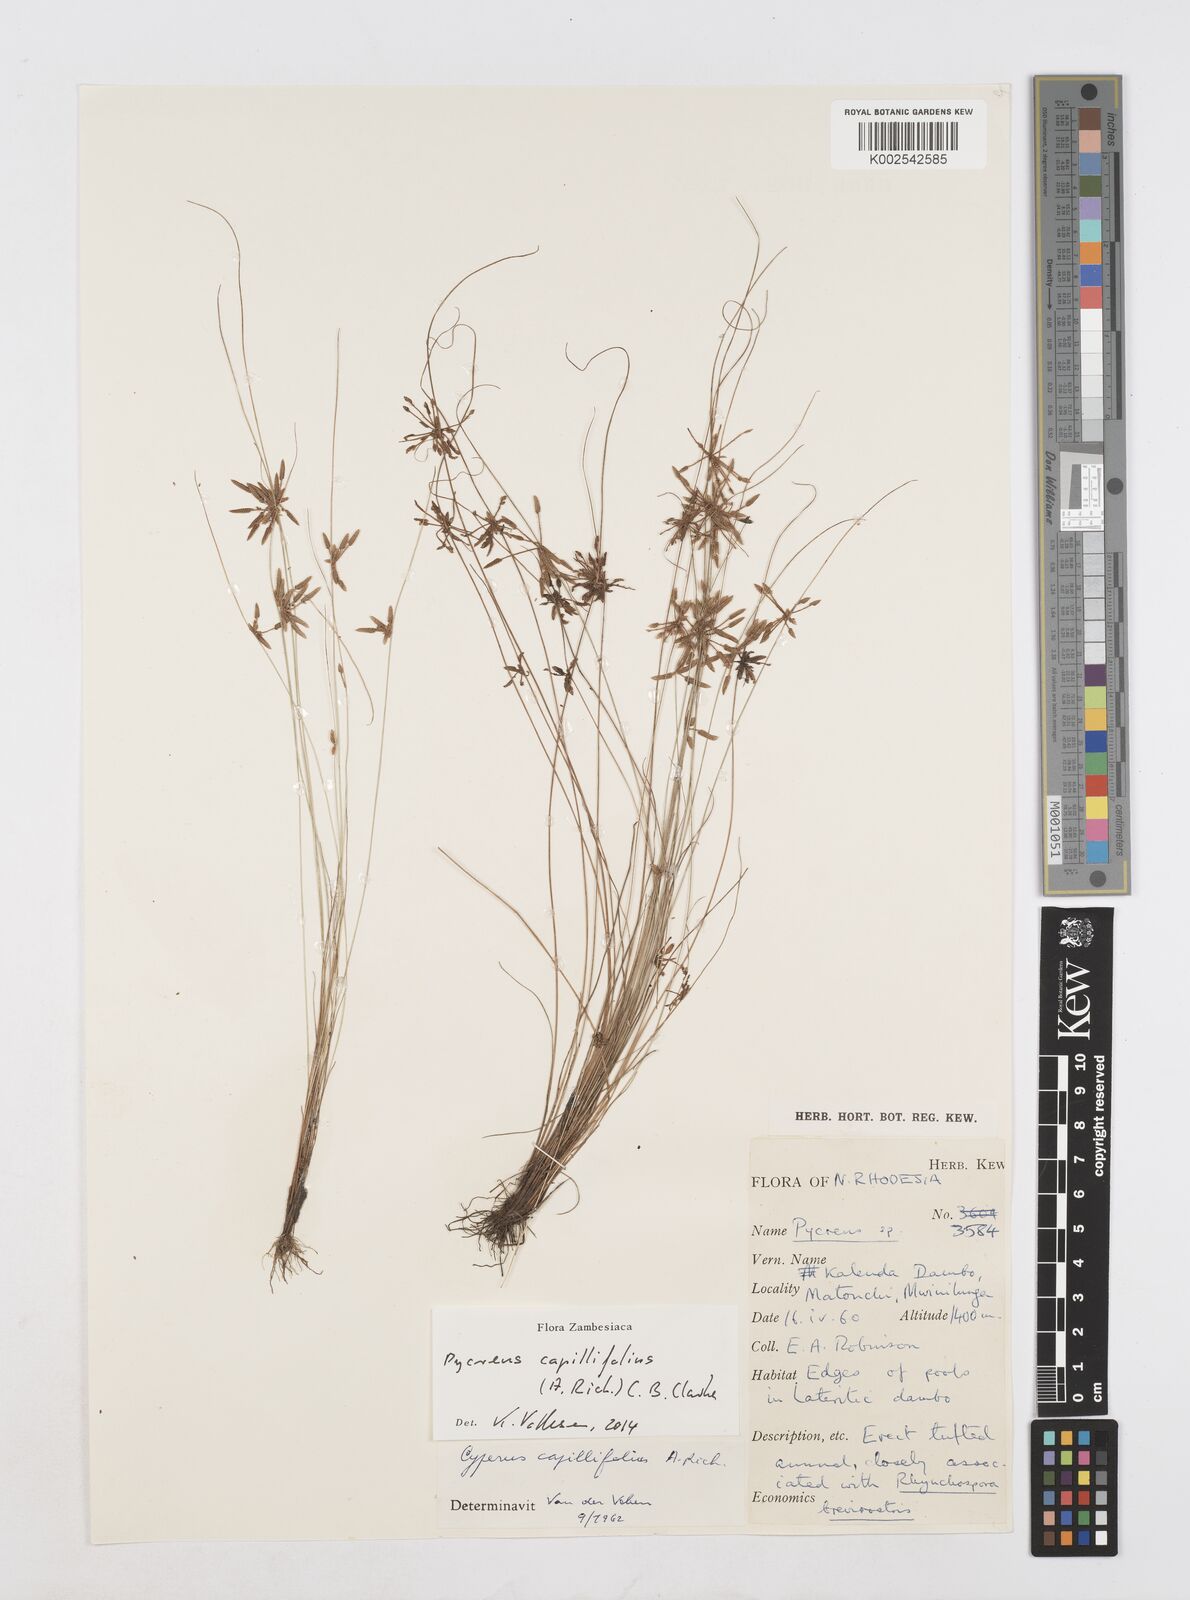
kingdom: Plantae
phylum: Tracheophyta
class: Liliopsida
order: Poales
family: Cyperaceae
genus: Cyperus
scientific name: Cyperus capillifolius
